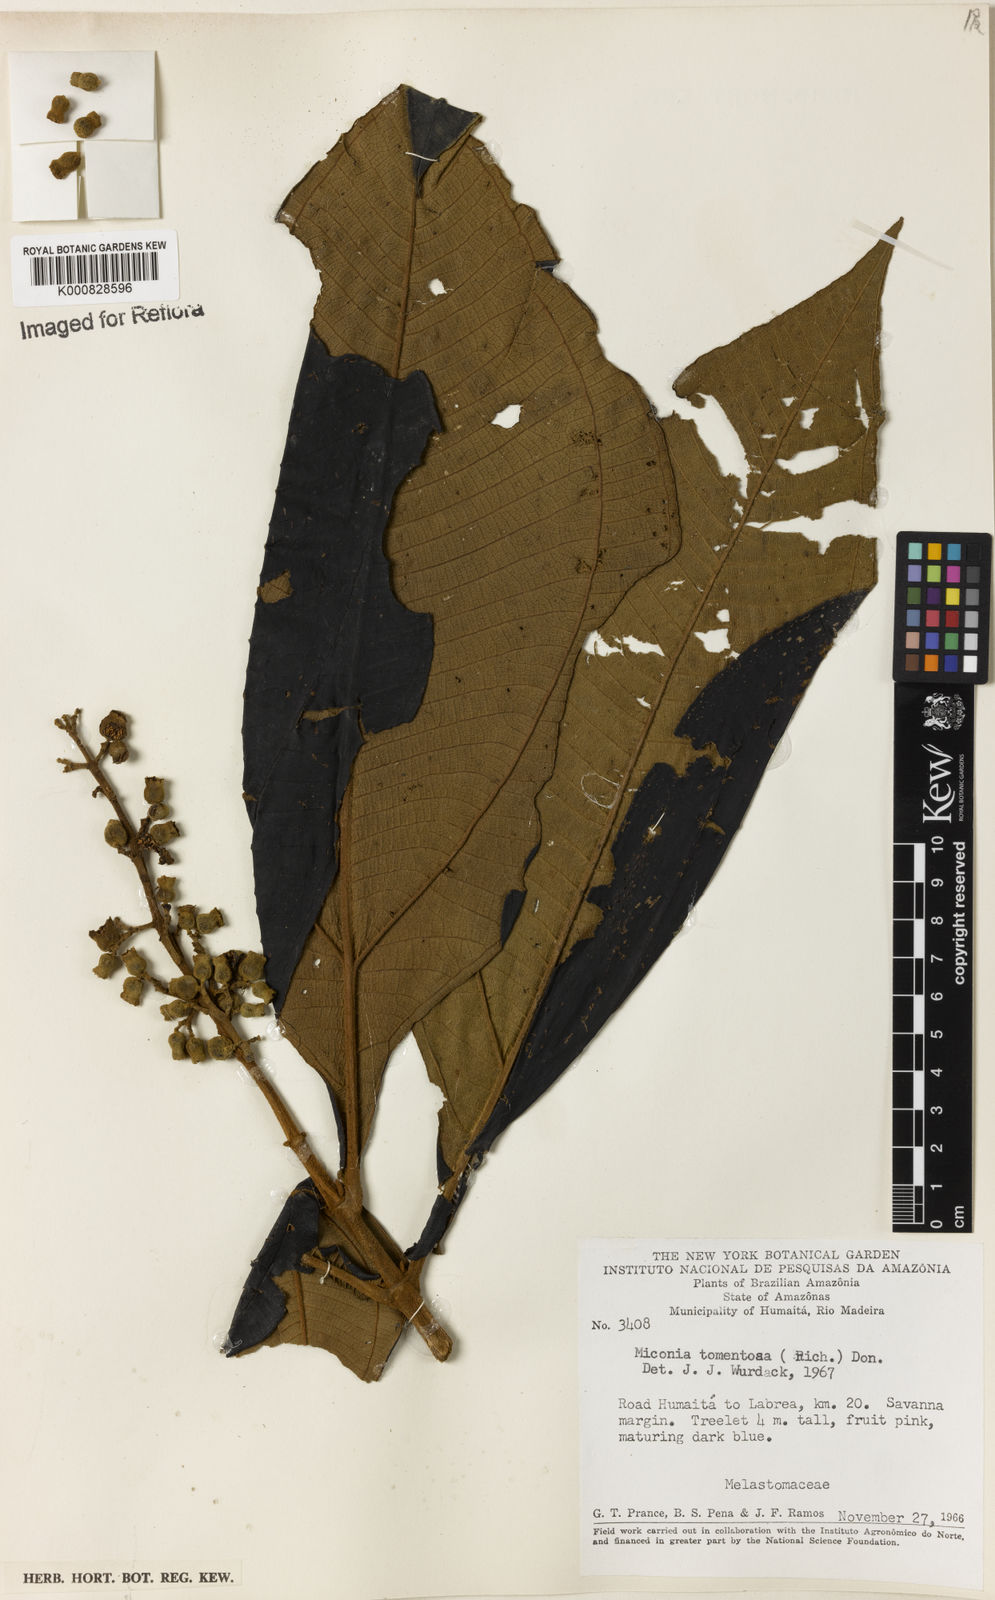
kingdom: Plantae
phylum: Tracheophyta
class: Magnoliopsida
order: Myrtales
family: Melastomataceae
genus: Miconia
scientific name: Miconia tomentosa
